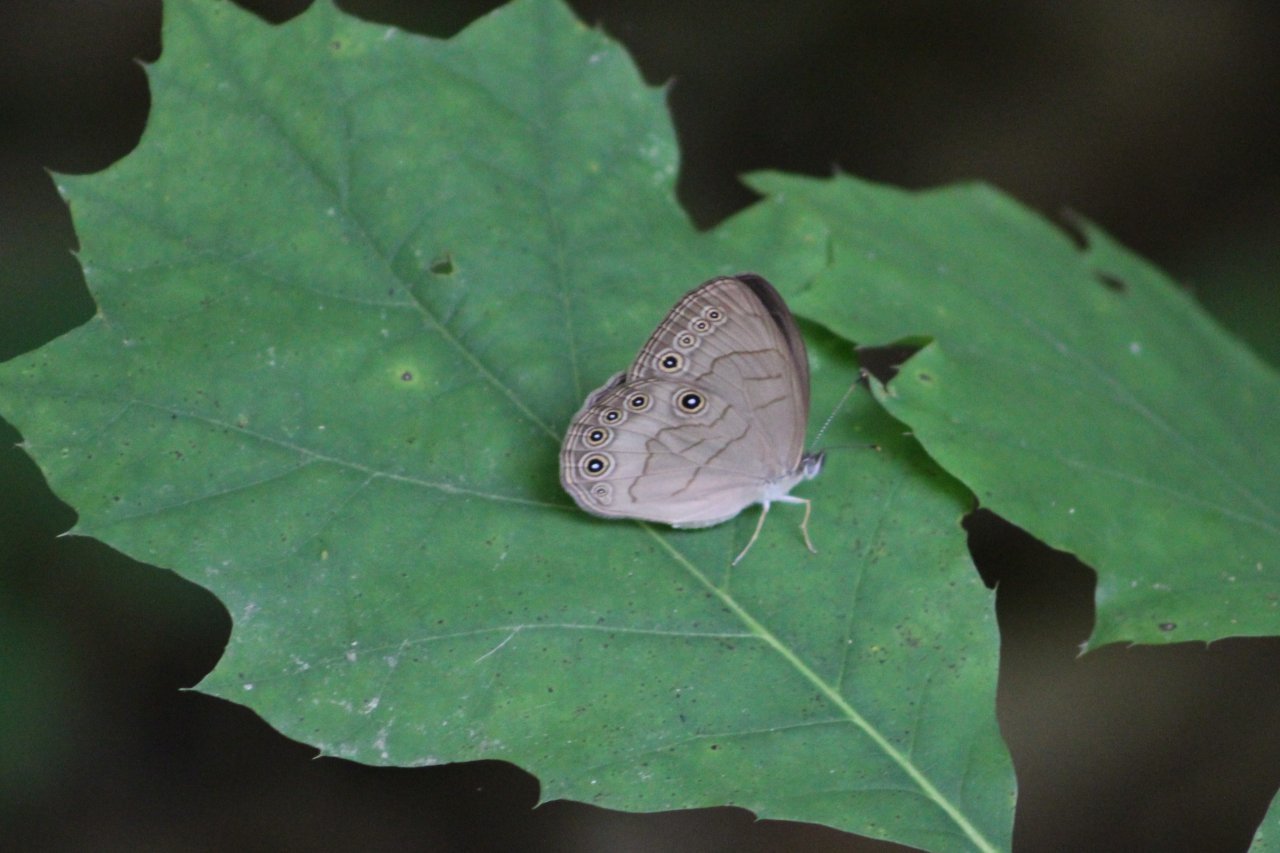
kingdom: Animalia
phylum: Arthropoda
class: Insecta
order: Lepidoptera
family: Nymphalidae
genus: Lethe
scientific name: Lethe eurydice
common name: Appalachian Eyed Brown
